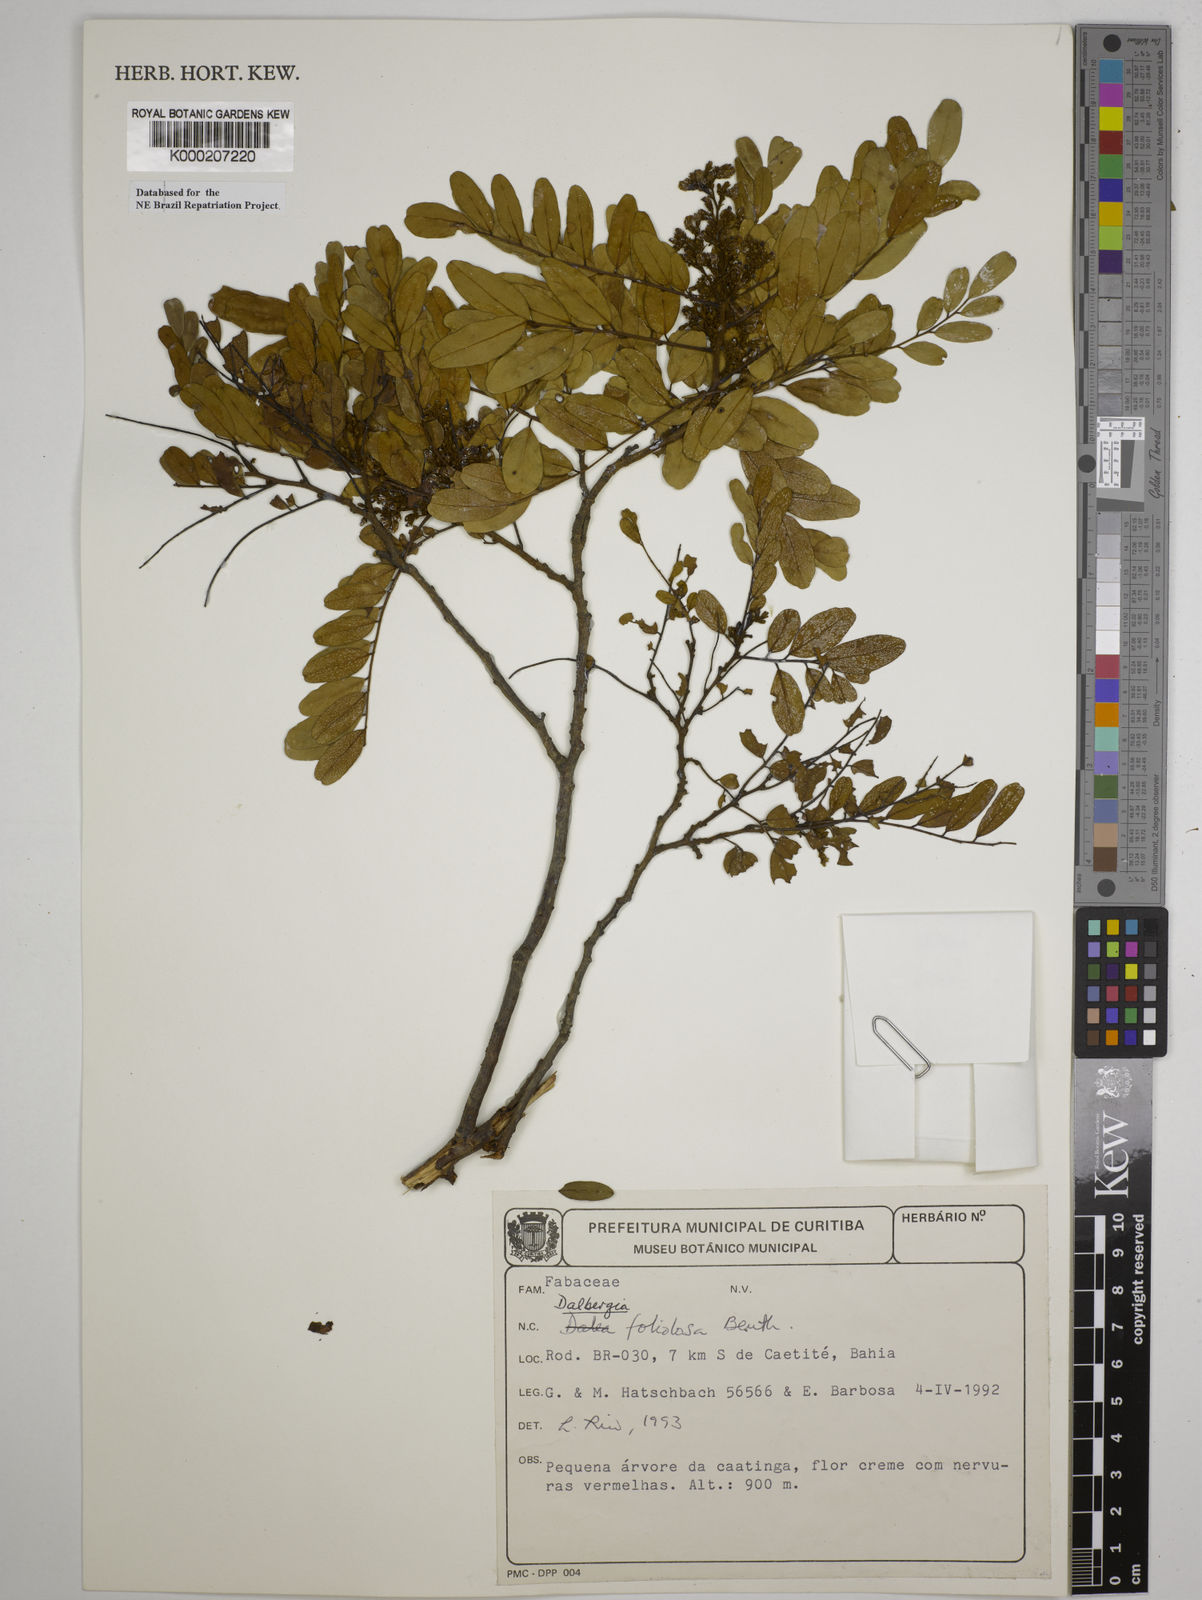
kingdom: Plantae
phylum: Tracheophyta
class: Magnoliopsida
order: Fabales
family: Fabaceae
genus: Dalbergia
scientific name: Dalbergia foliolosa
